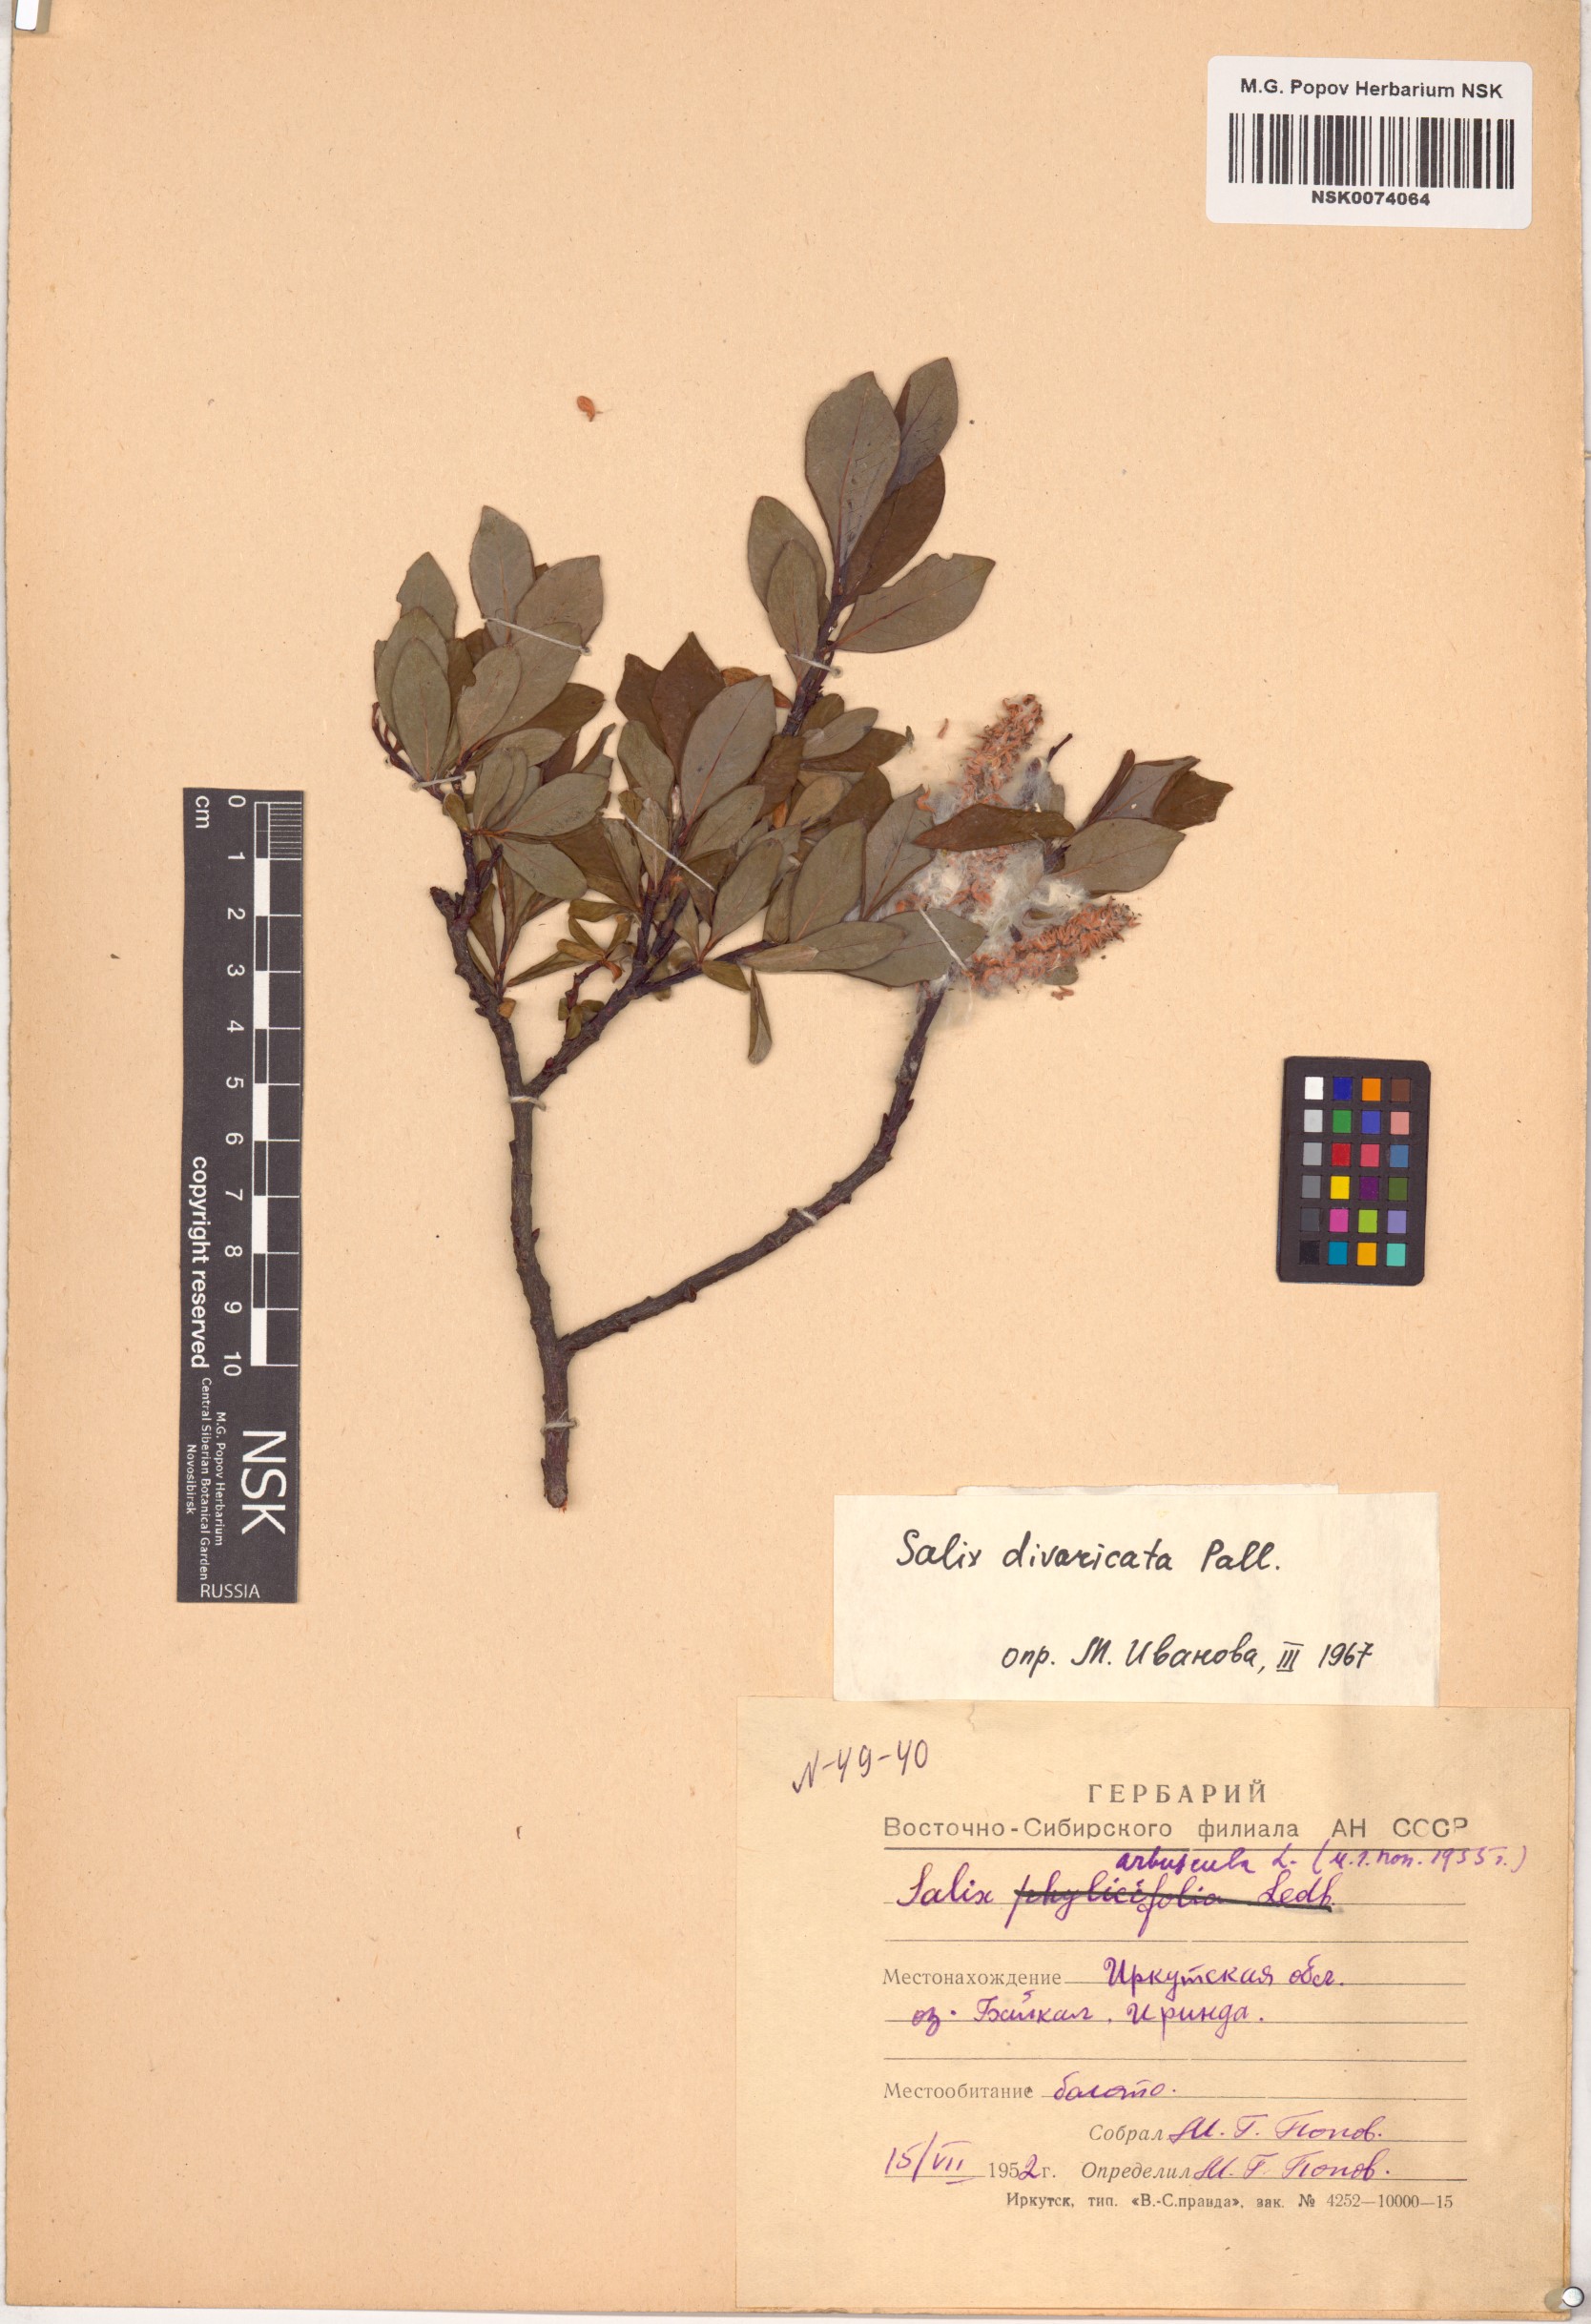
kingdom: Plantae
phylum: Tracheophyta
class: Magnoliopsida
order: Malpighiales
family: Salicaceae
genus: Salix
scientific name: Salix divaricata
